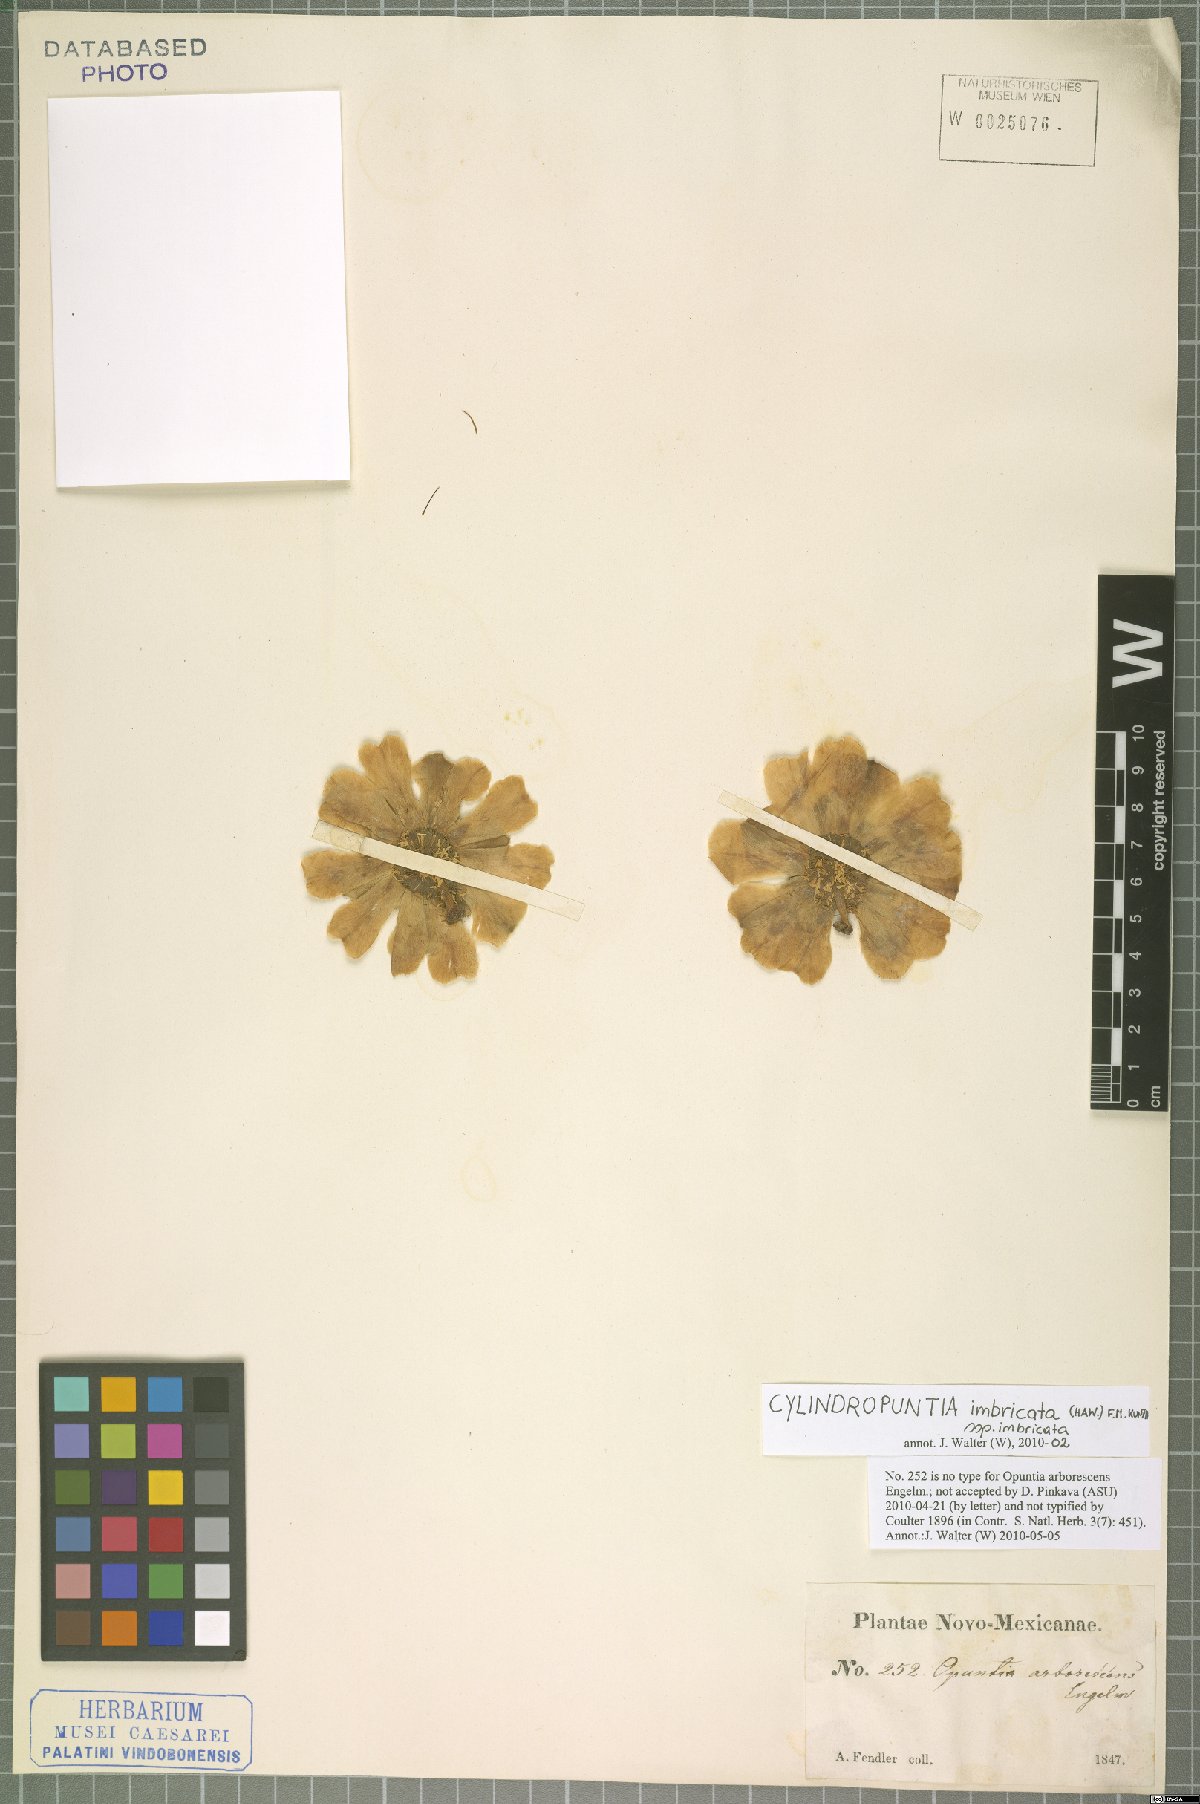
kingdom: Plantae
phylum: Tracheophyta
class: Magnoliopsida
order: Caryophyllales
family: Cactaceae
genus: Cylindropuntia
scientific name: Cylindropuntia imbricata
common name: Candelabrum cactus
